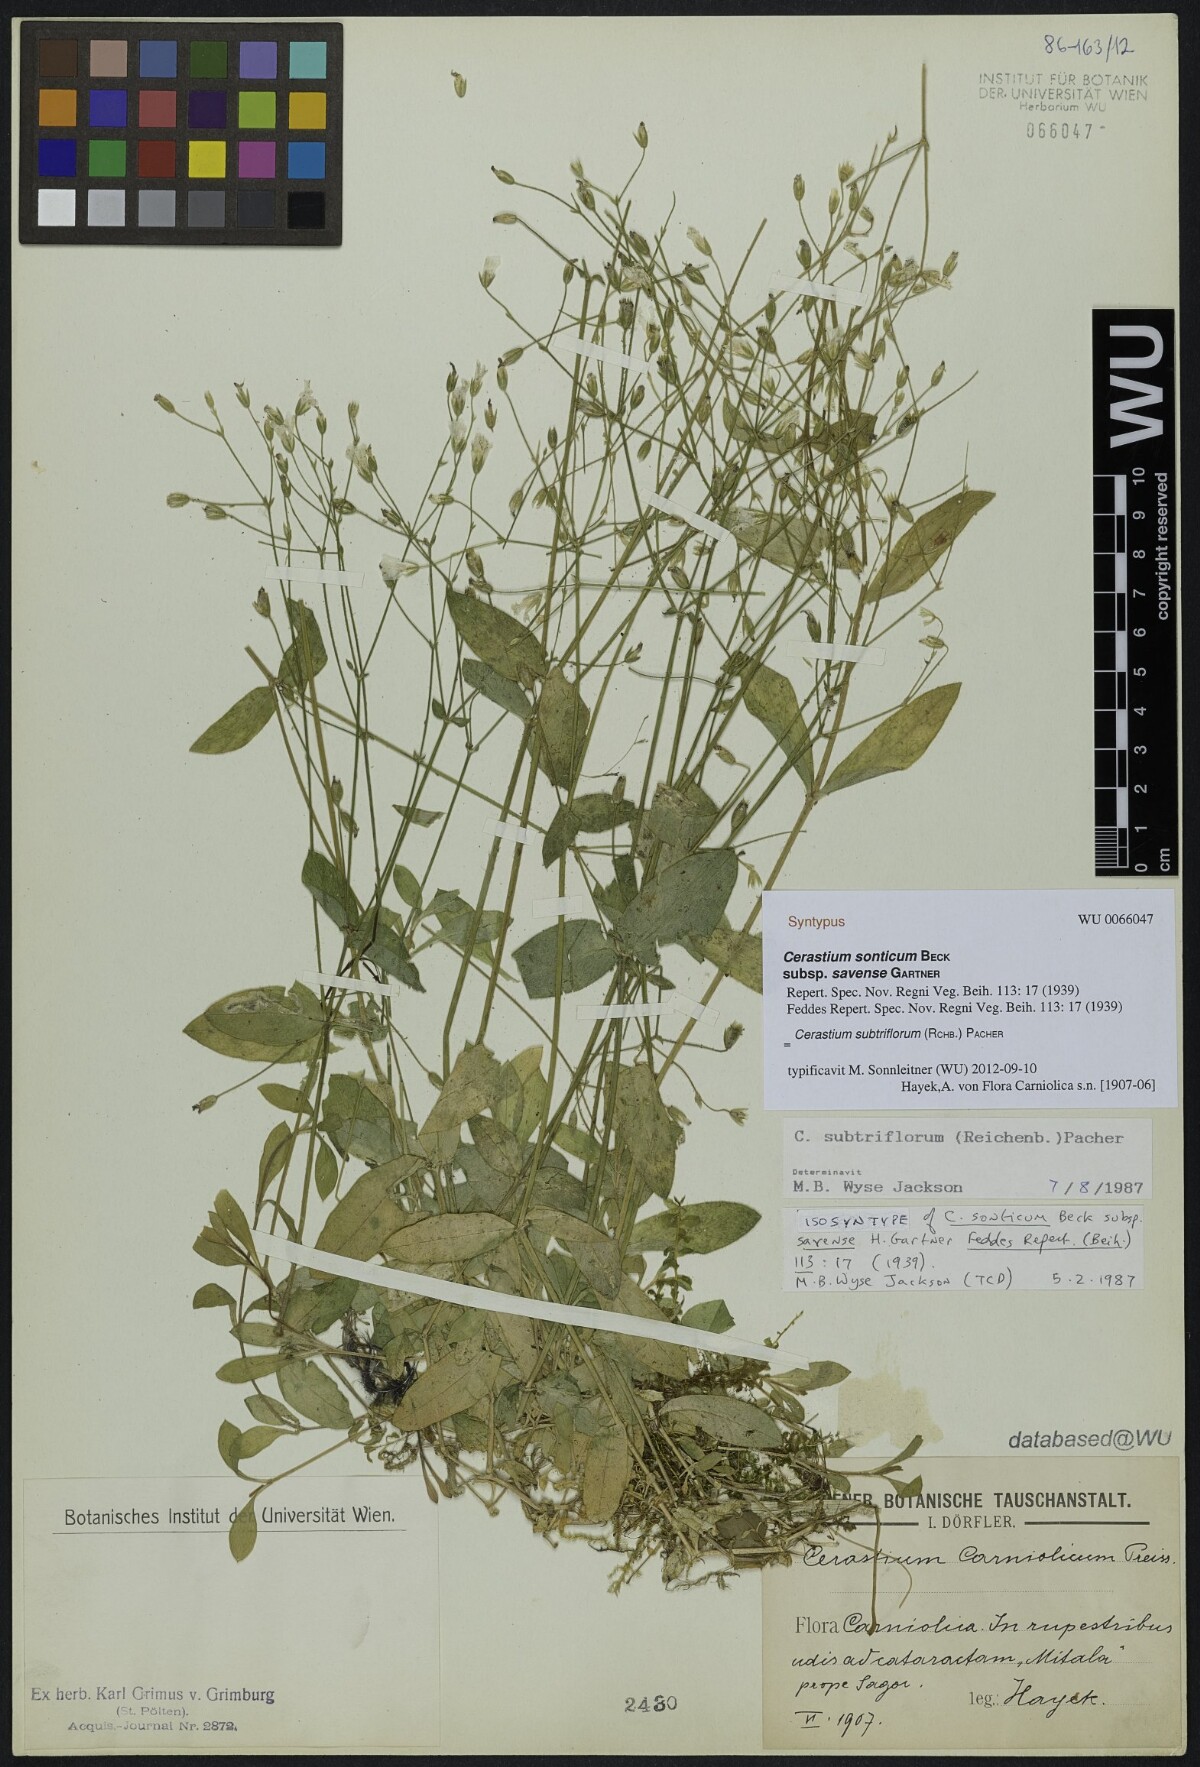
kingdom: Plantae
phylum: Tracheophyta
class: Magnoliopsida
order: Caryophyllales
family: Caryophyllaceae
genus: Cerastium
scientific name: Cerastium subtriflorum
